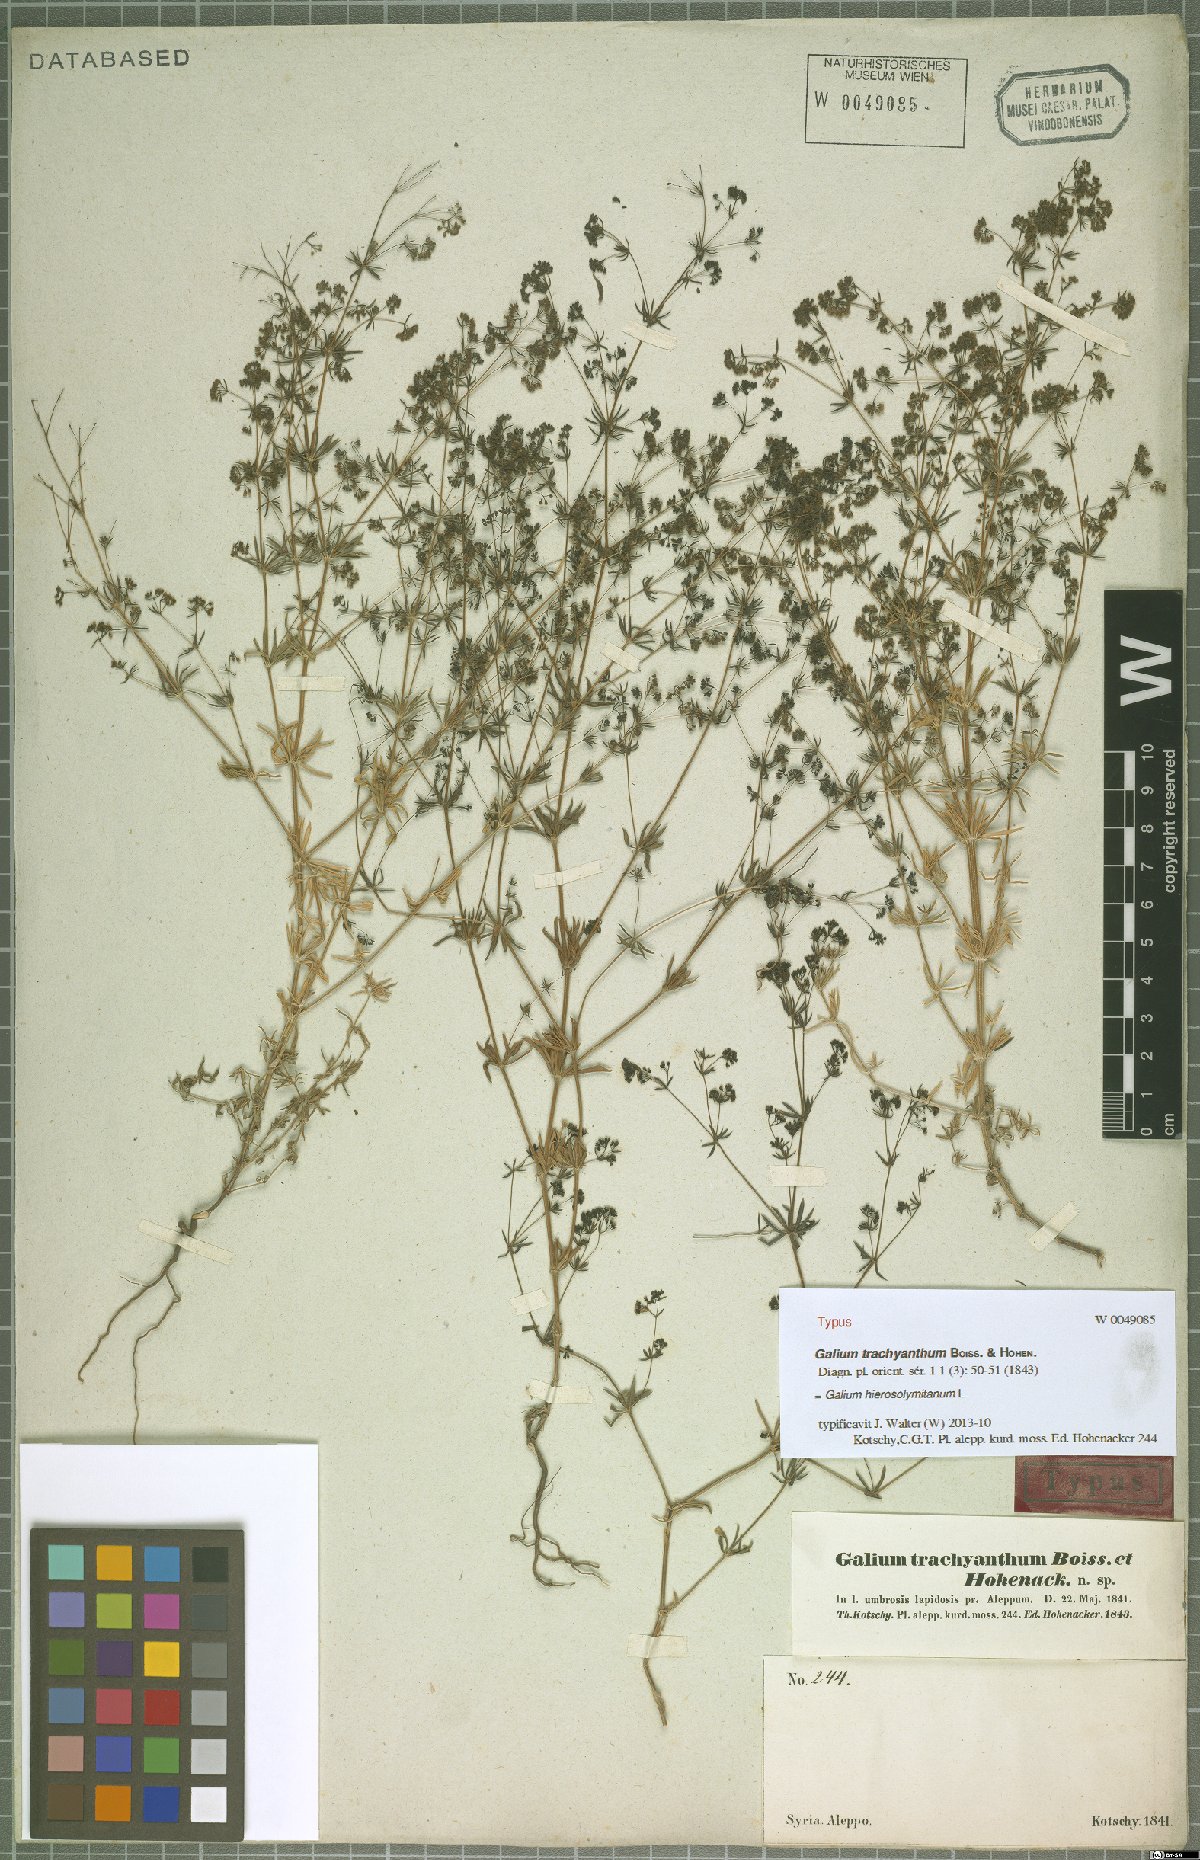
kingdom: Plantae
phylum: Tracheophyta
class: Magnoliopsida
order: Gentianales
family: Rubiaceae
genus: Galium
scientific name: Galium hierosolymitanum
